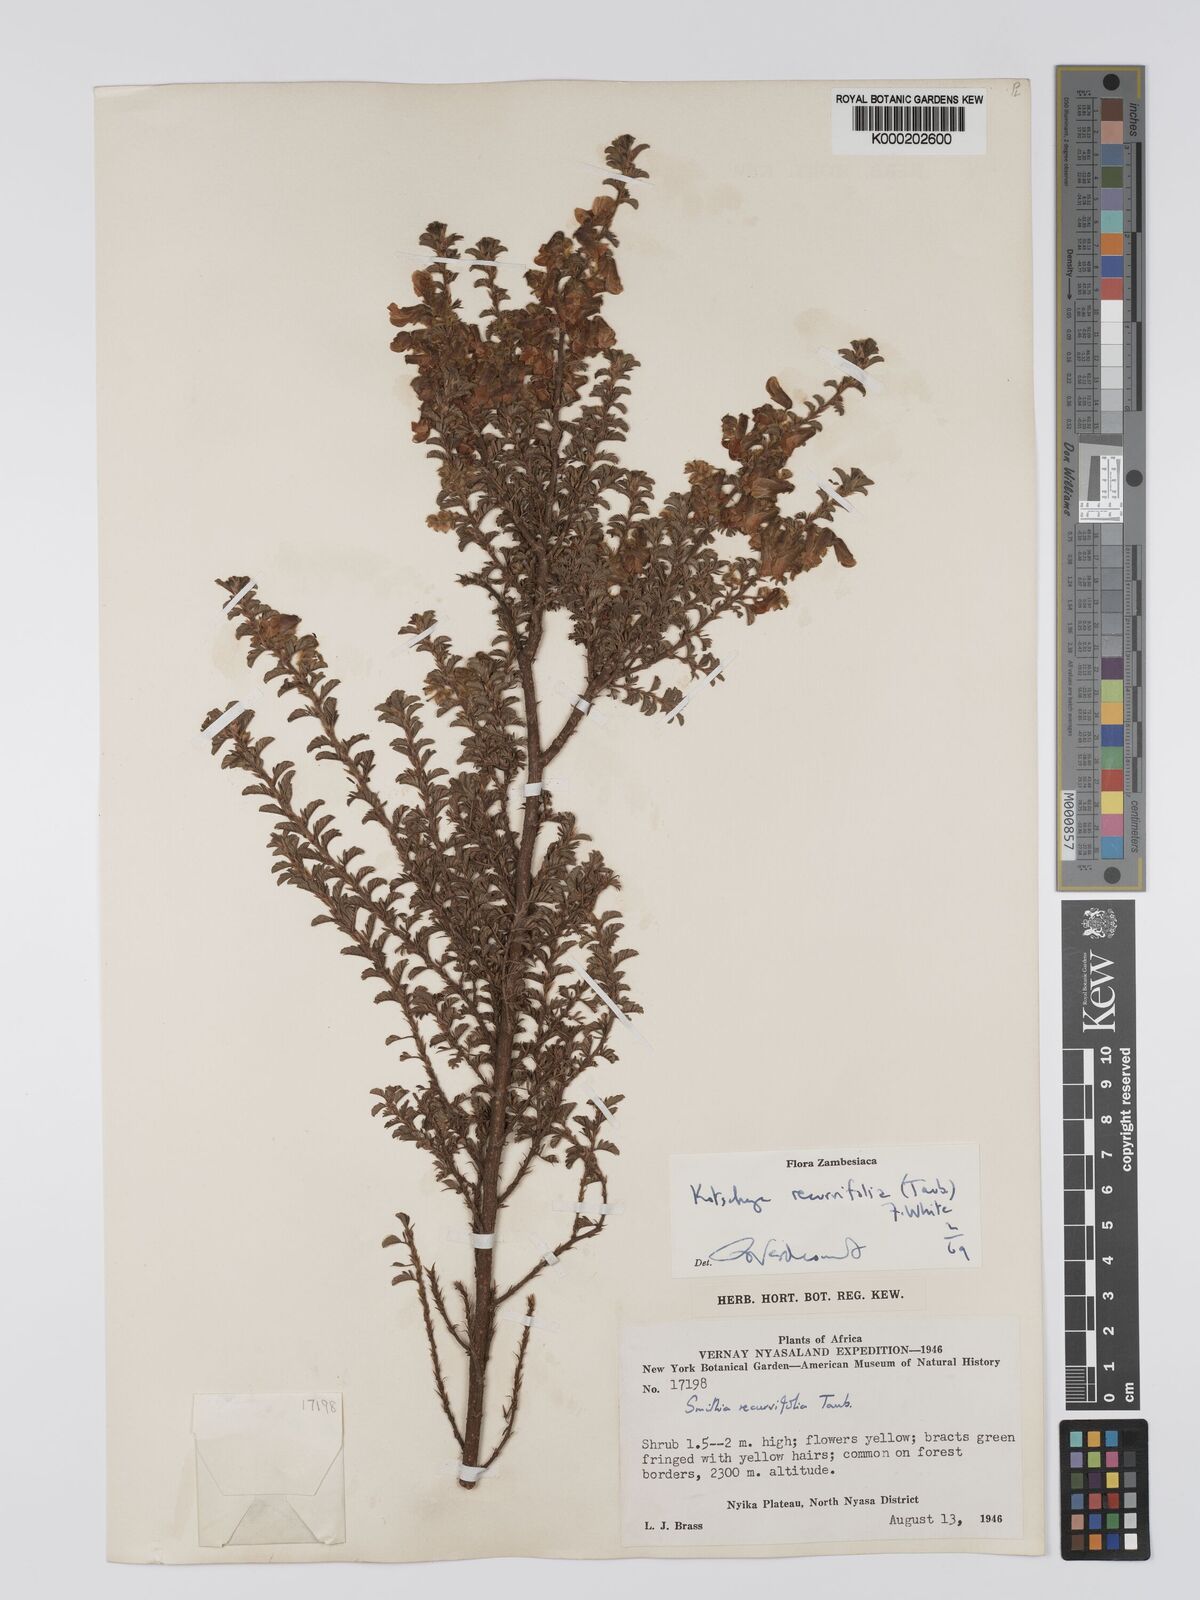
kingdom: Plantae
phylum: Tracheophyta
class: Magnoliopsida
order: Fabales
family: Fabaceae
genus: Kotschya
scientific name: Kotschya recurvifolia
